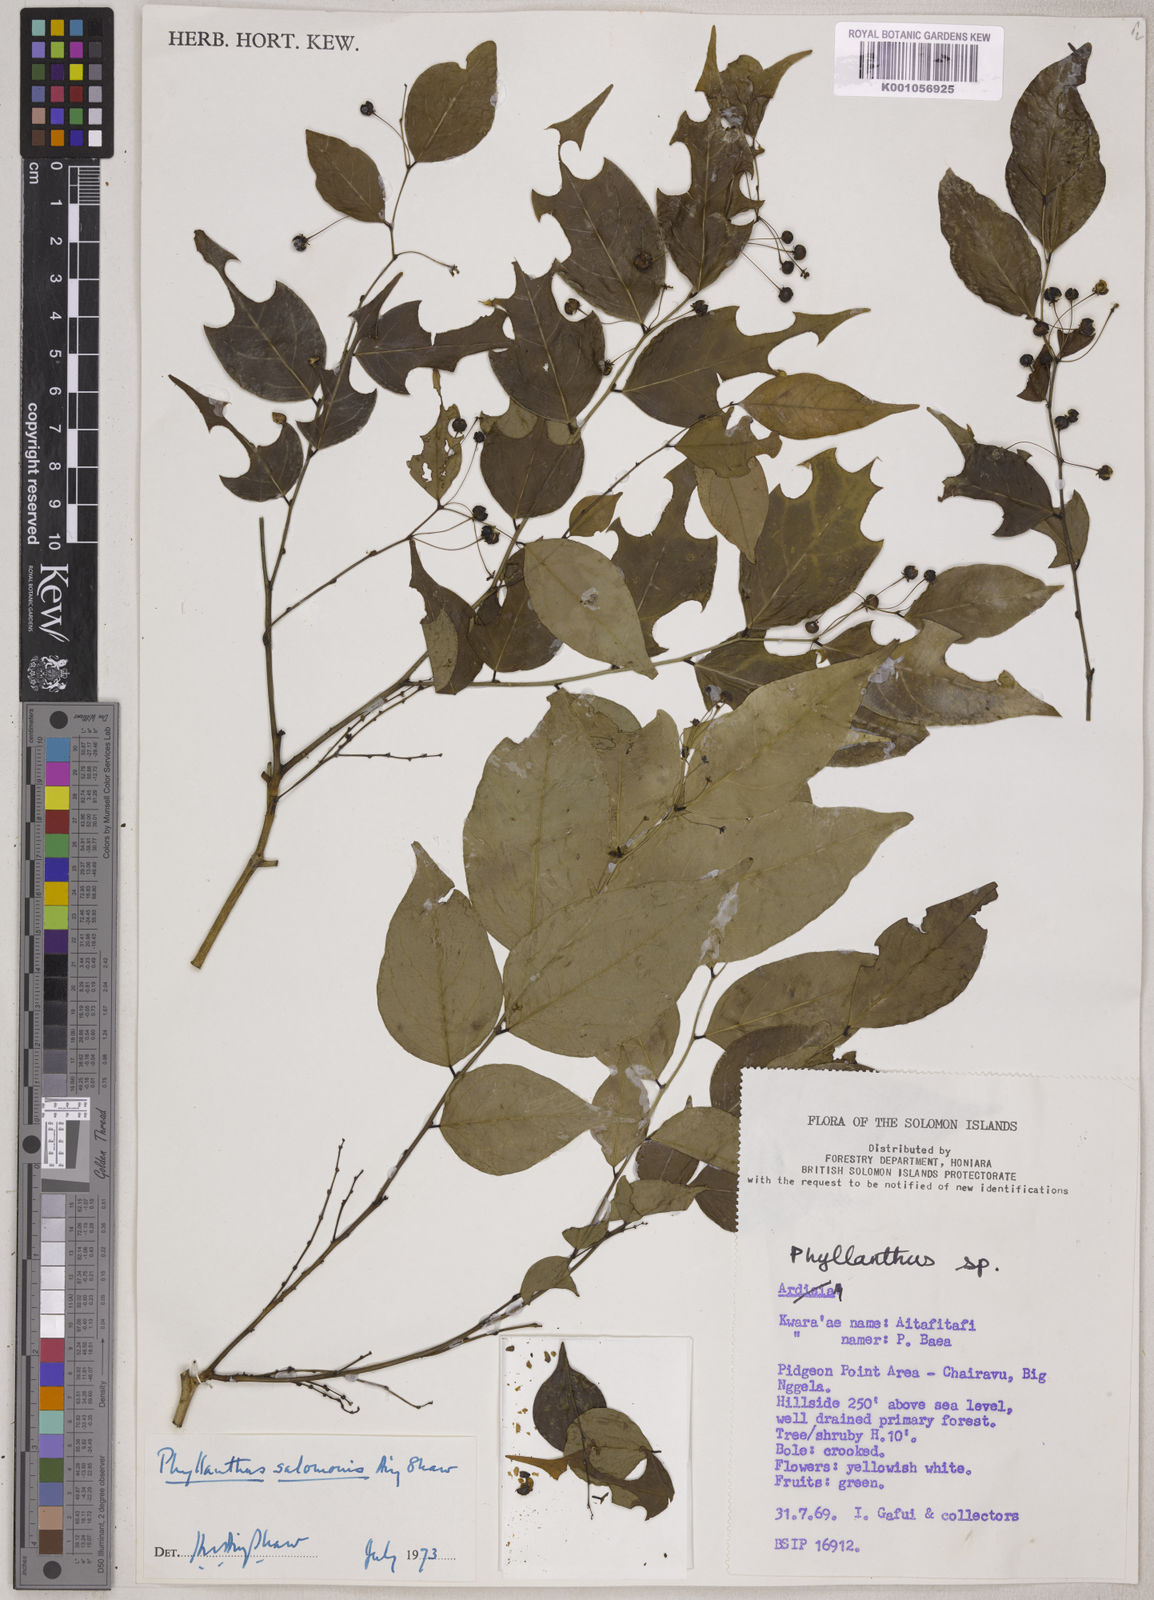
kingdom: Plantae
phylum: Tracheophyta
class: Magnoliopsida
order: Malpighiales
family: Phyllanthaceae
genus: Phyllanthus
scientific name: Phyllanthus salomonis
